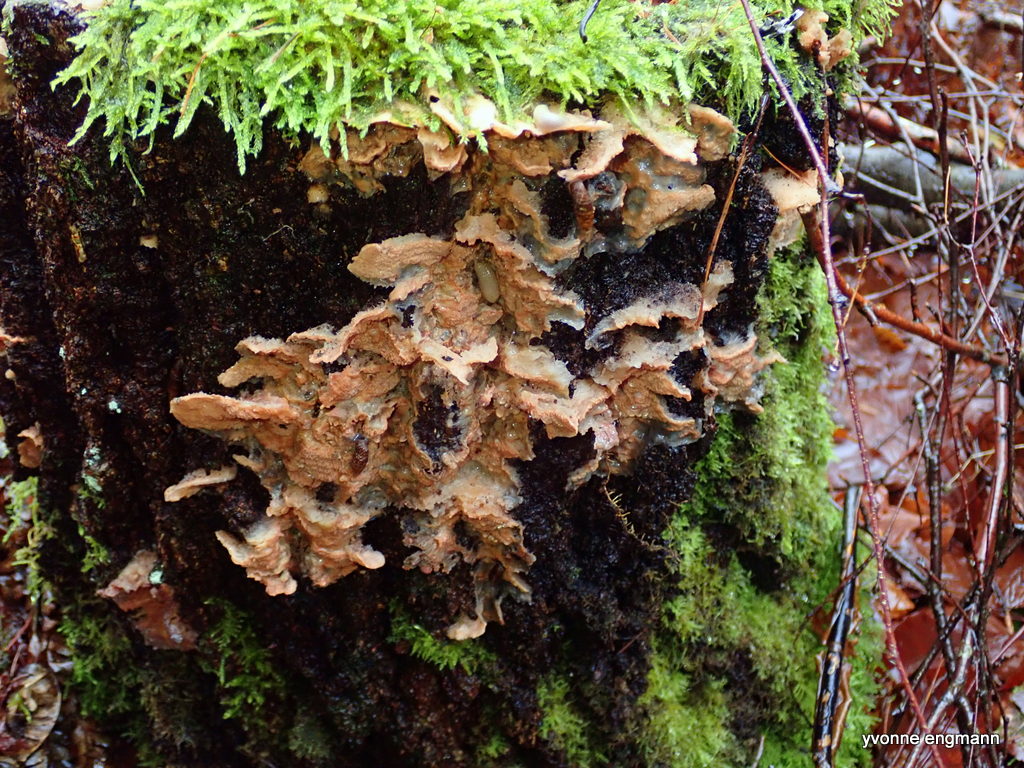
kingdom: Fungi
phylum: Basidiomycota
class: Agaricomycetes
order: Polyporales
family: Meruliaceae
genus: Phlebia
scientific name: Phlebia tremellosa
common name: bævrende åresvamp
